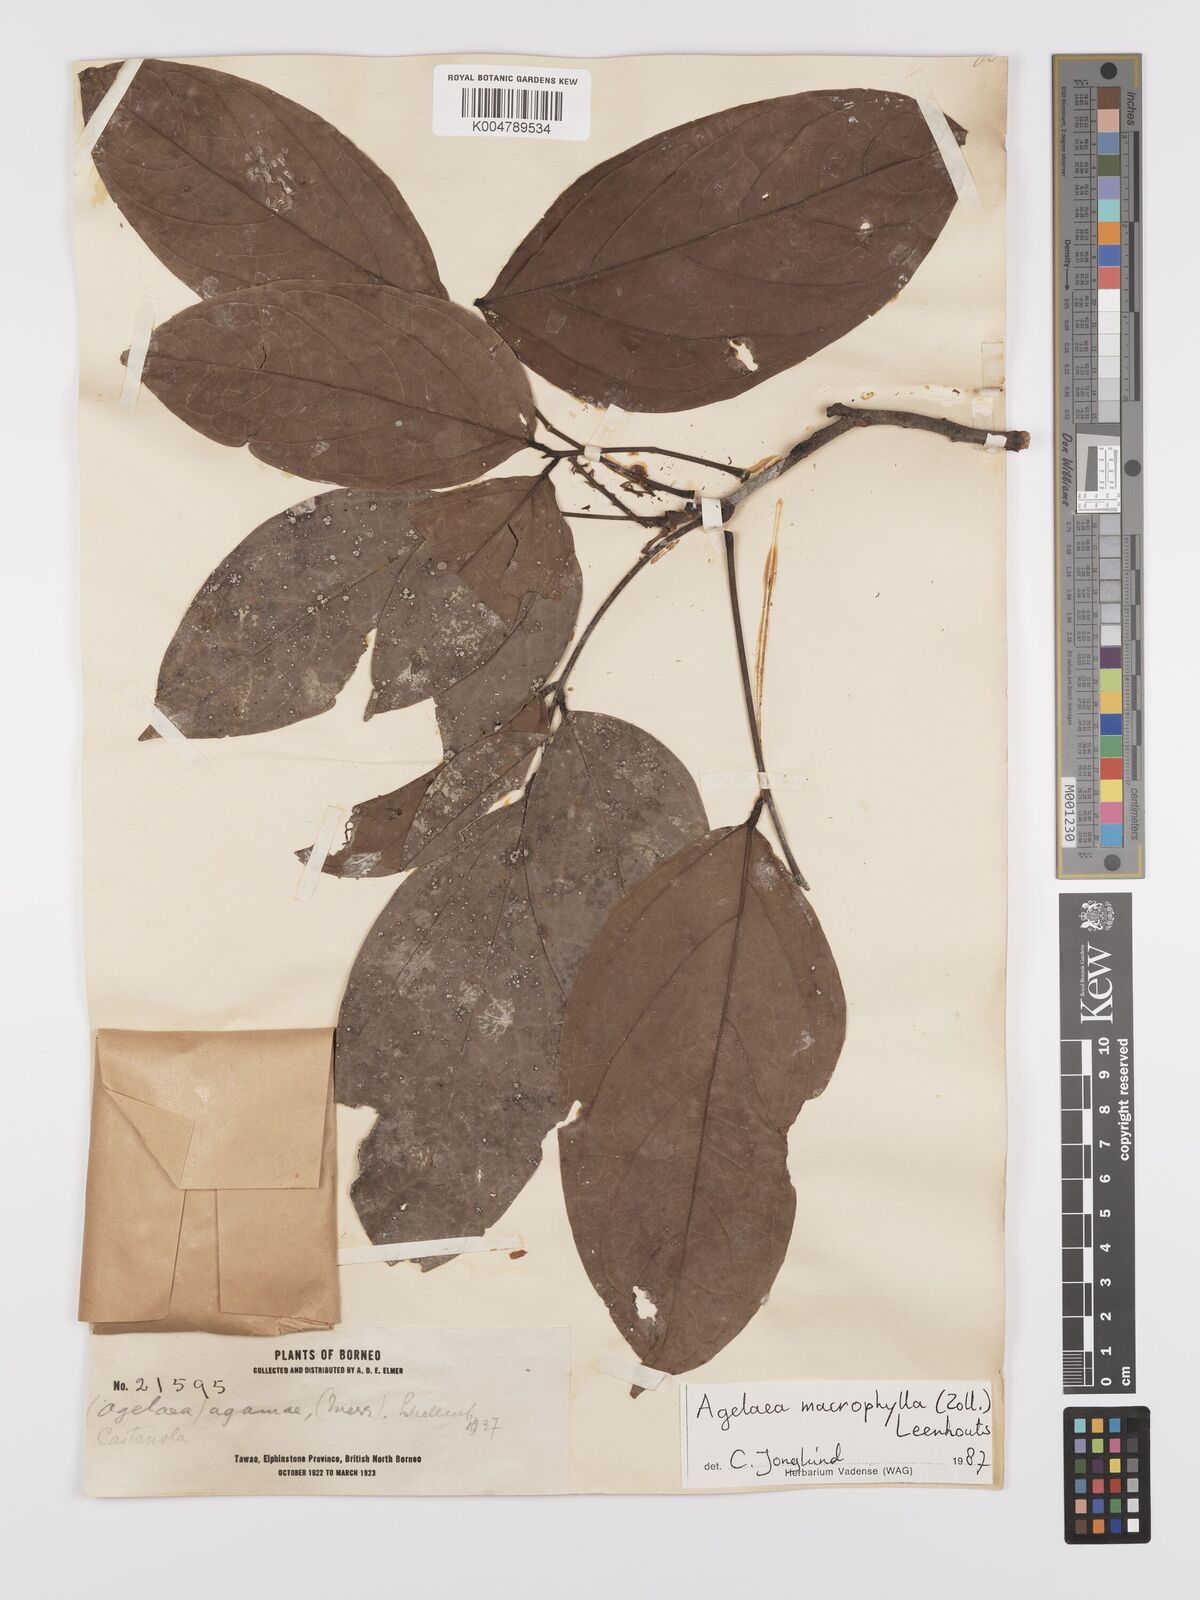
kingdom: Plantae
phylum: Tracheophyta
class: Magnoliopsida
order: Oxalidales
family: Connaraceae
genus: Agelaea
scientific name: Agelaea trinervis
